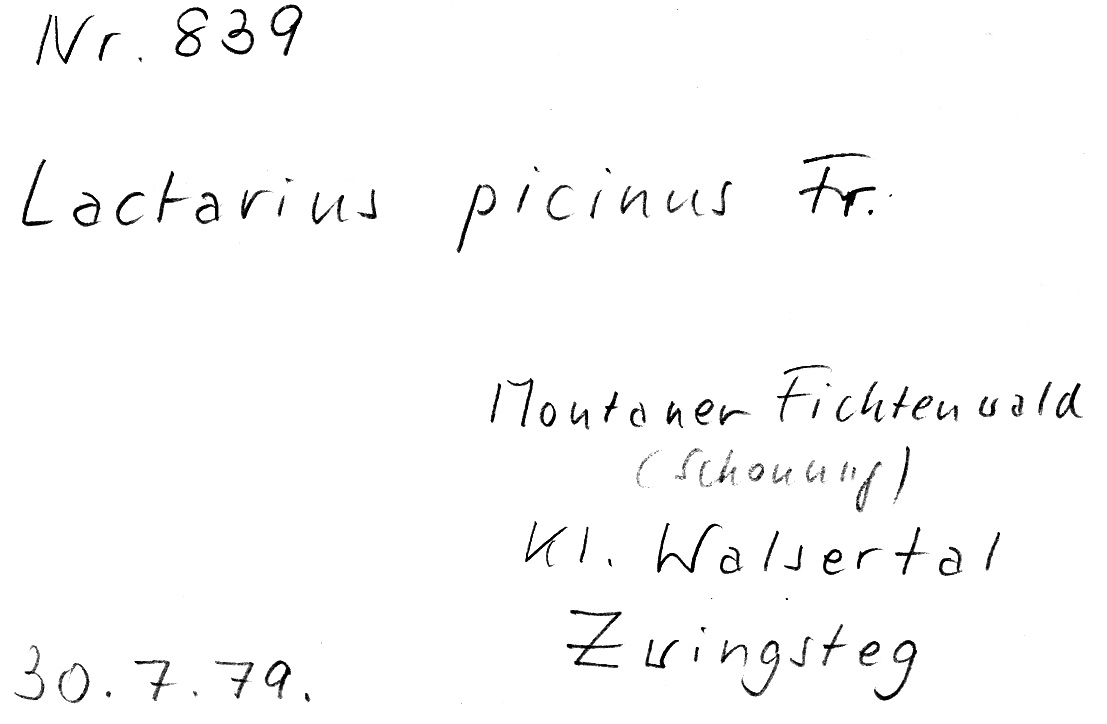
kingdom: Fungi
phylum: Basidiomycota
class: Agaricomycetes
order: Russulales
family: Russulaceae
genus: Lactarius
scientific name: Lactarius picinus
